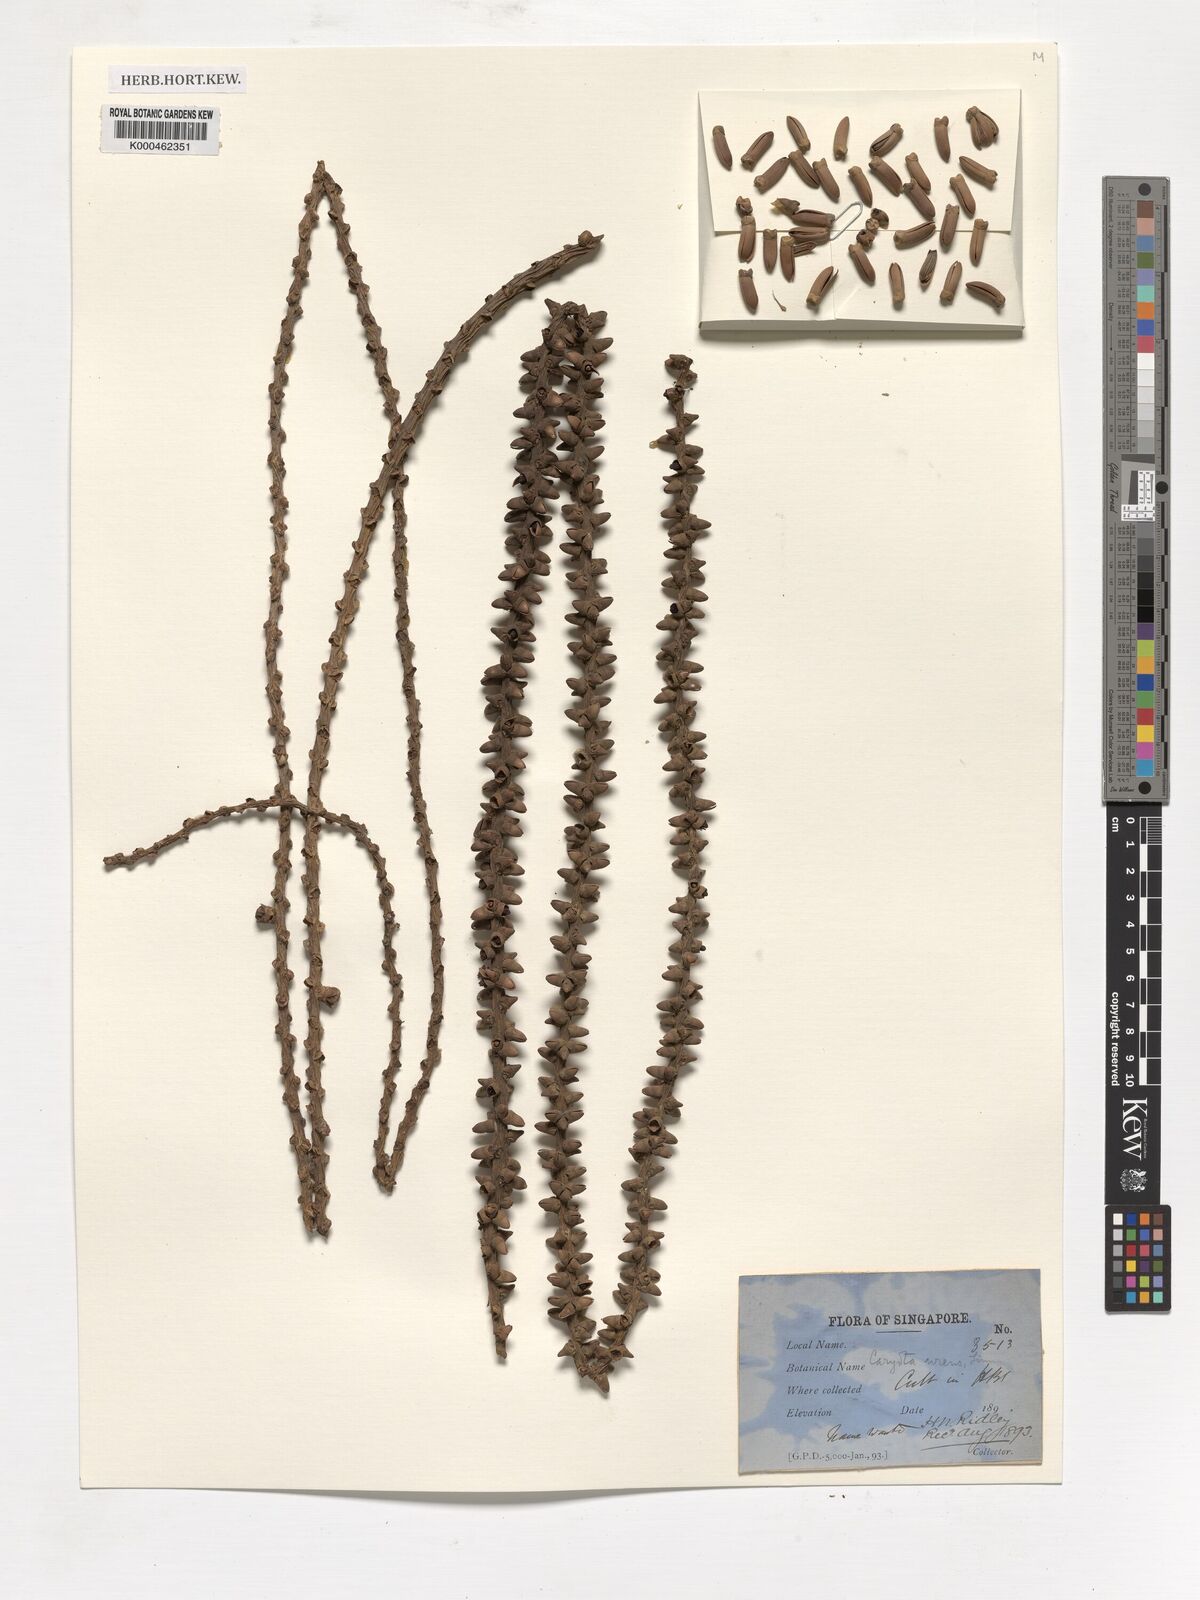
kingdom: Plantae
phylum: Tracheophyta
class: Liliopsida
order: Arecales
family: Arecaceae
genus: Caryota
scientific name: Caryota urens
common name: Jaggery palm
